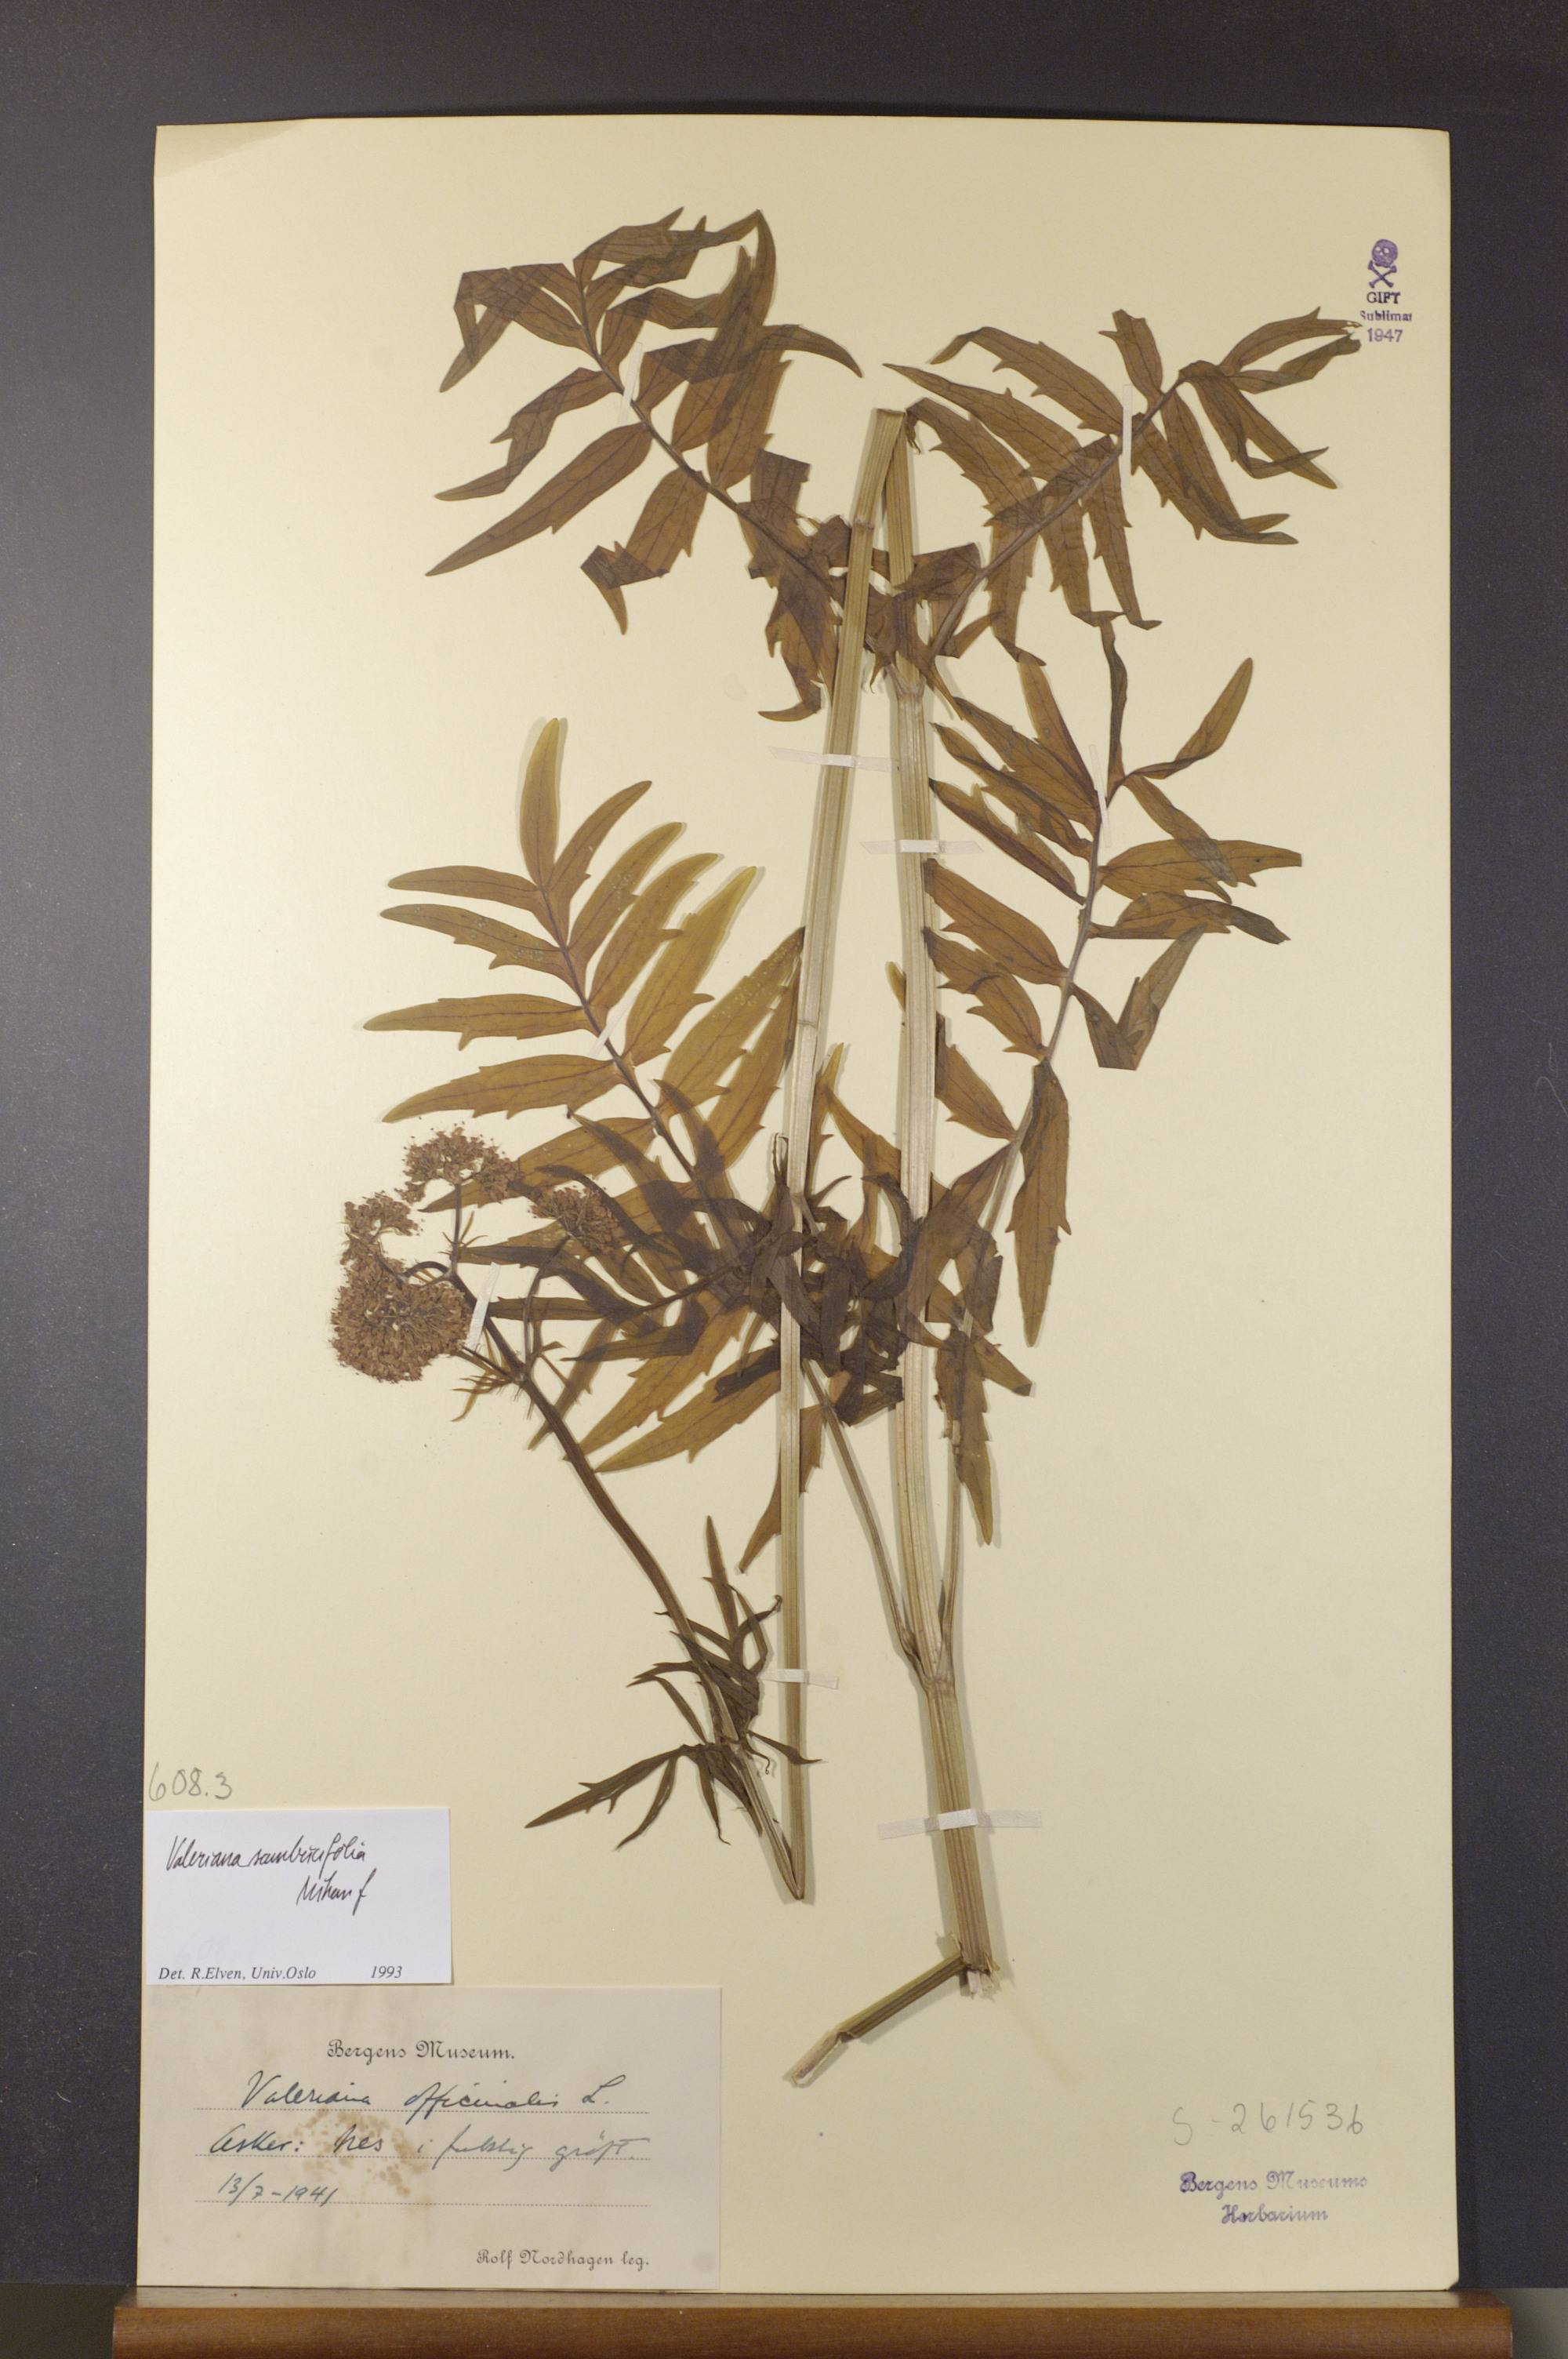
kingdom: Plantae
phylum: Tracheophyta
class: Magnoliopsida
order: Dipsacales
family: Caprifoliaceae
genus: Valeriana
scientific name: Valeriana excelsa
